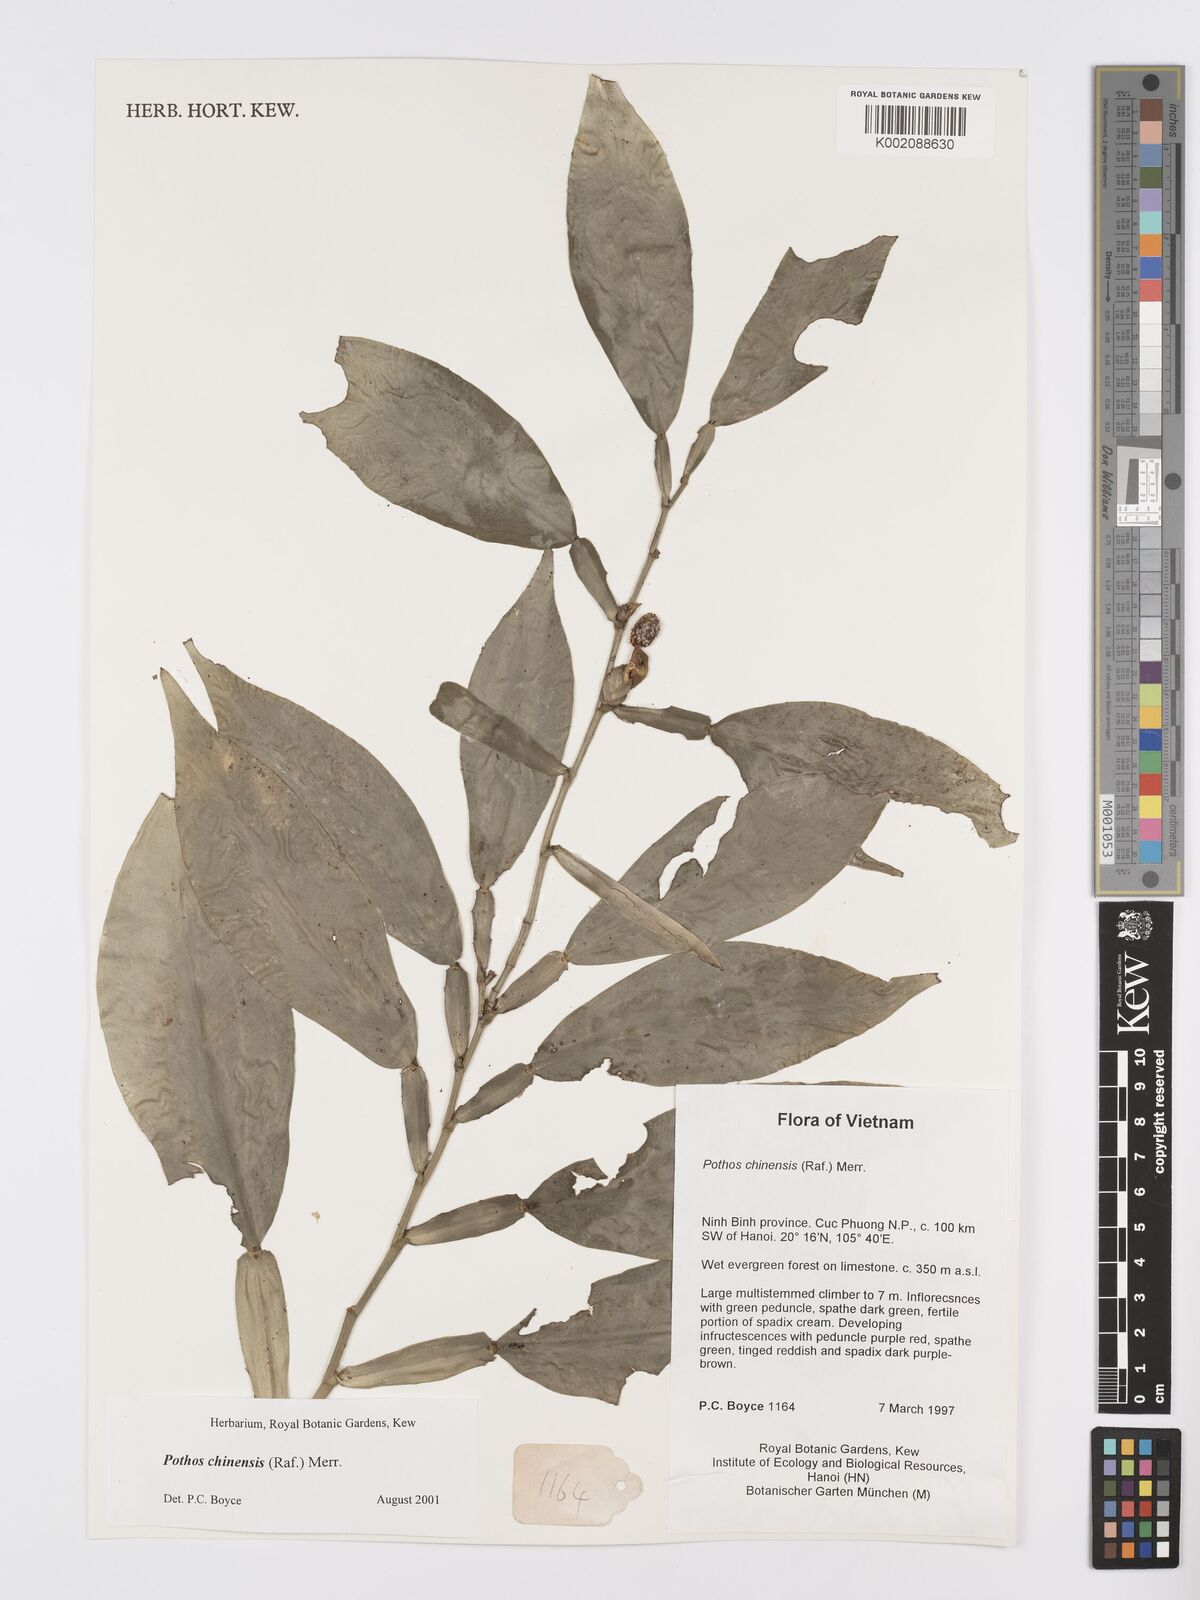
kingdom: Plantae
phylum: Tracheophyta
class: Liliopsida
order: Alismatales
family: Araceae
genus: Pothos
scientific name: Pothos chinensis
